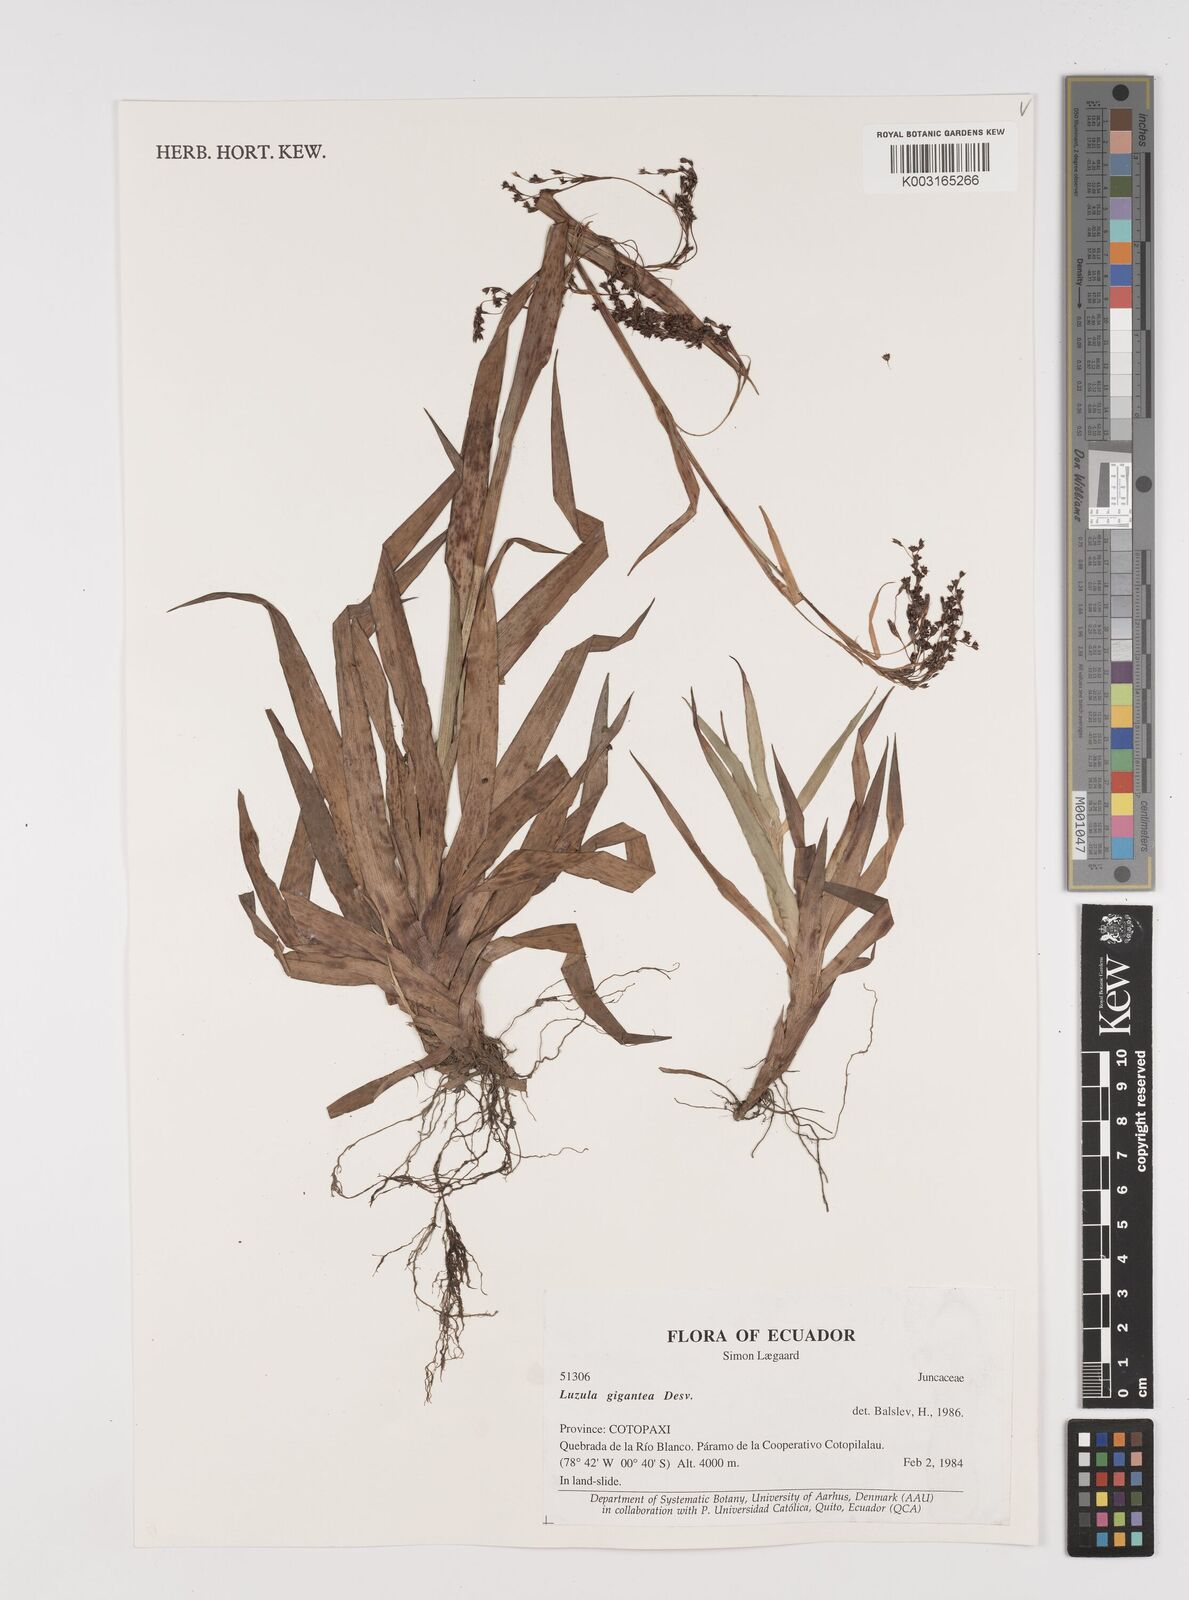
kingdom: Plantae
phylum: Tracheophyta
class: Liliopsida
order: Poales
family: Juncaceae
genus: Luzula
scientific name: Luzula gigantea
